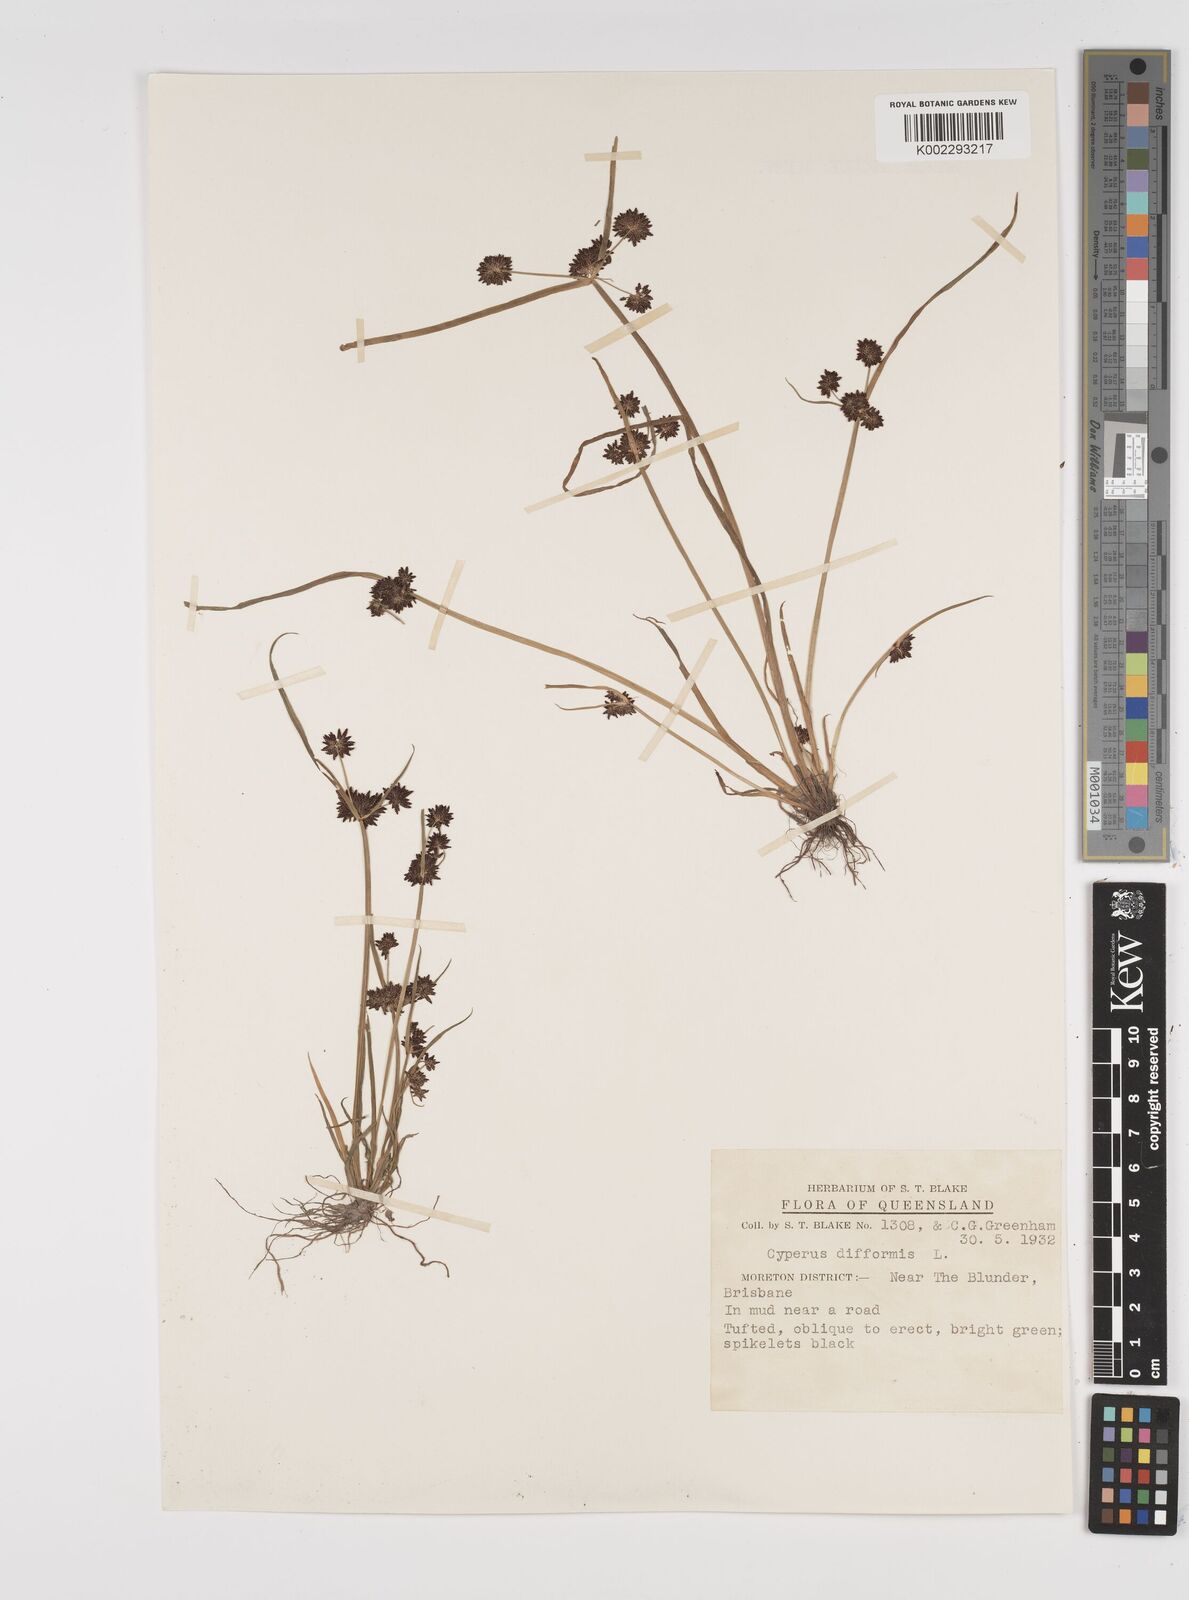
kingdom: Plantae
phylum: Tracheophyta
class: Liliopsida
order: Poales
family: Cyperaceae
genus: Cyperus
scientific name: Cyperus difformis
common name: Variable flatsedge
